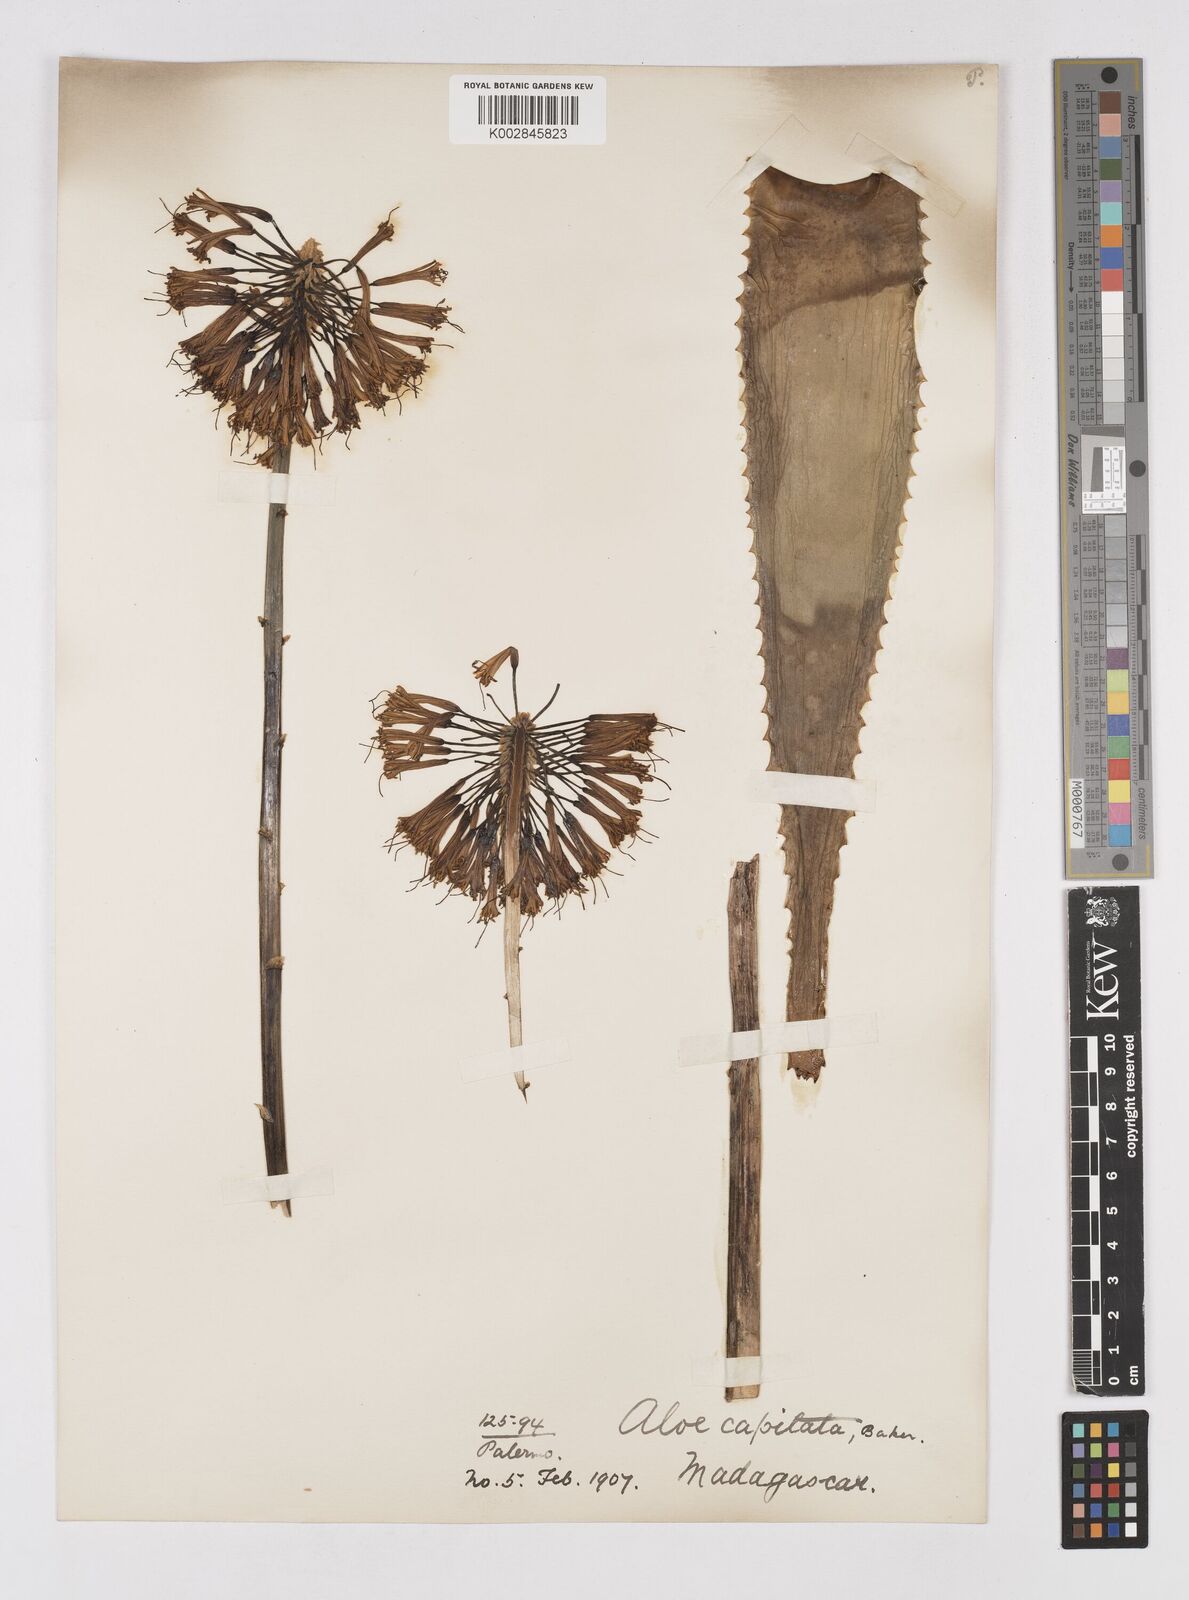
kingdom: Plantae
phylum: Tracheophyta
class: Liliopsida
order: Asparagales
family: Asphodelaceae
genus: Aloe
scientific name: Aloe capitata
